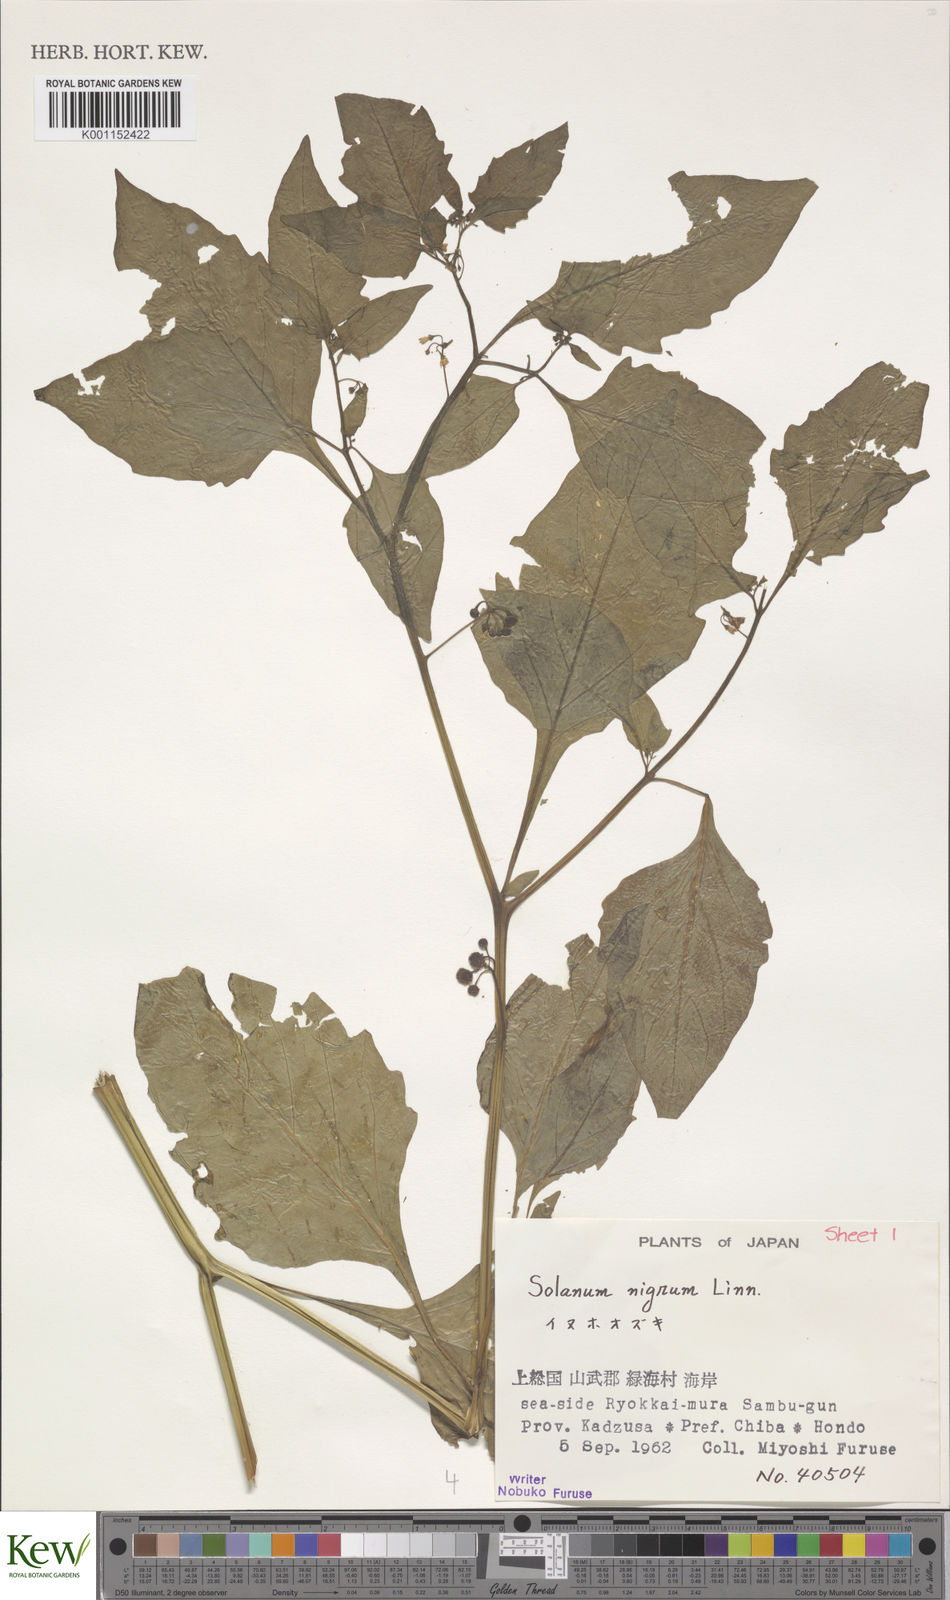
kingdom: Plantae
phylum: Tracheophyta
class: Magnoliopsida
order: Solanales
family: Solanaceae
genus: Solanum
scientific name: Solanum nigrum
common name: Black nightshade
